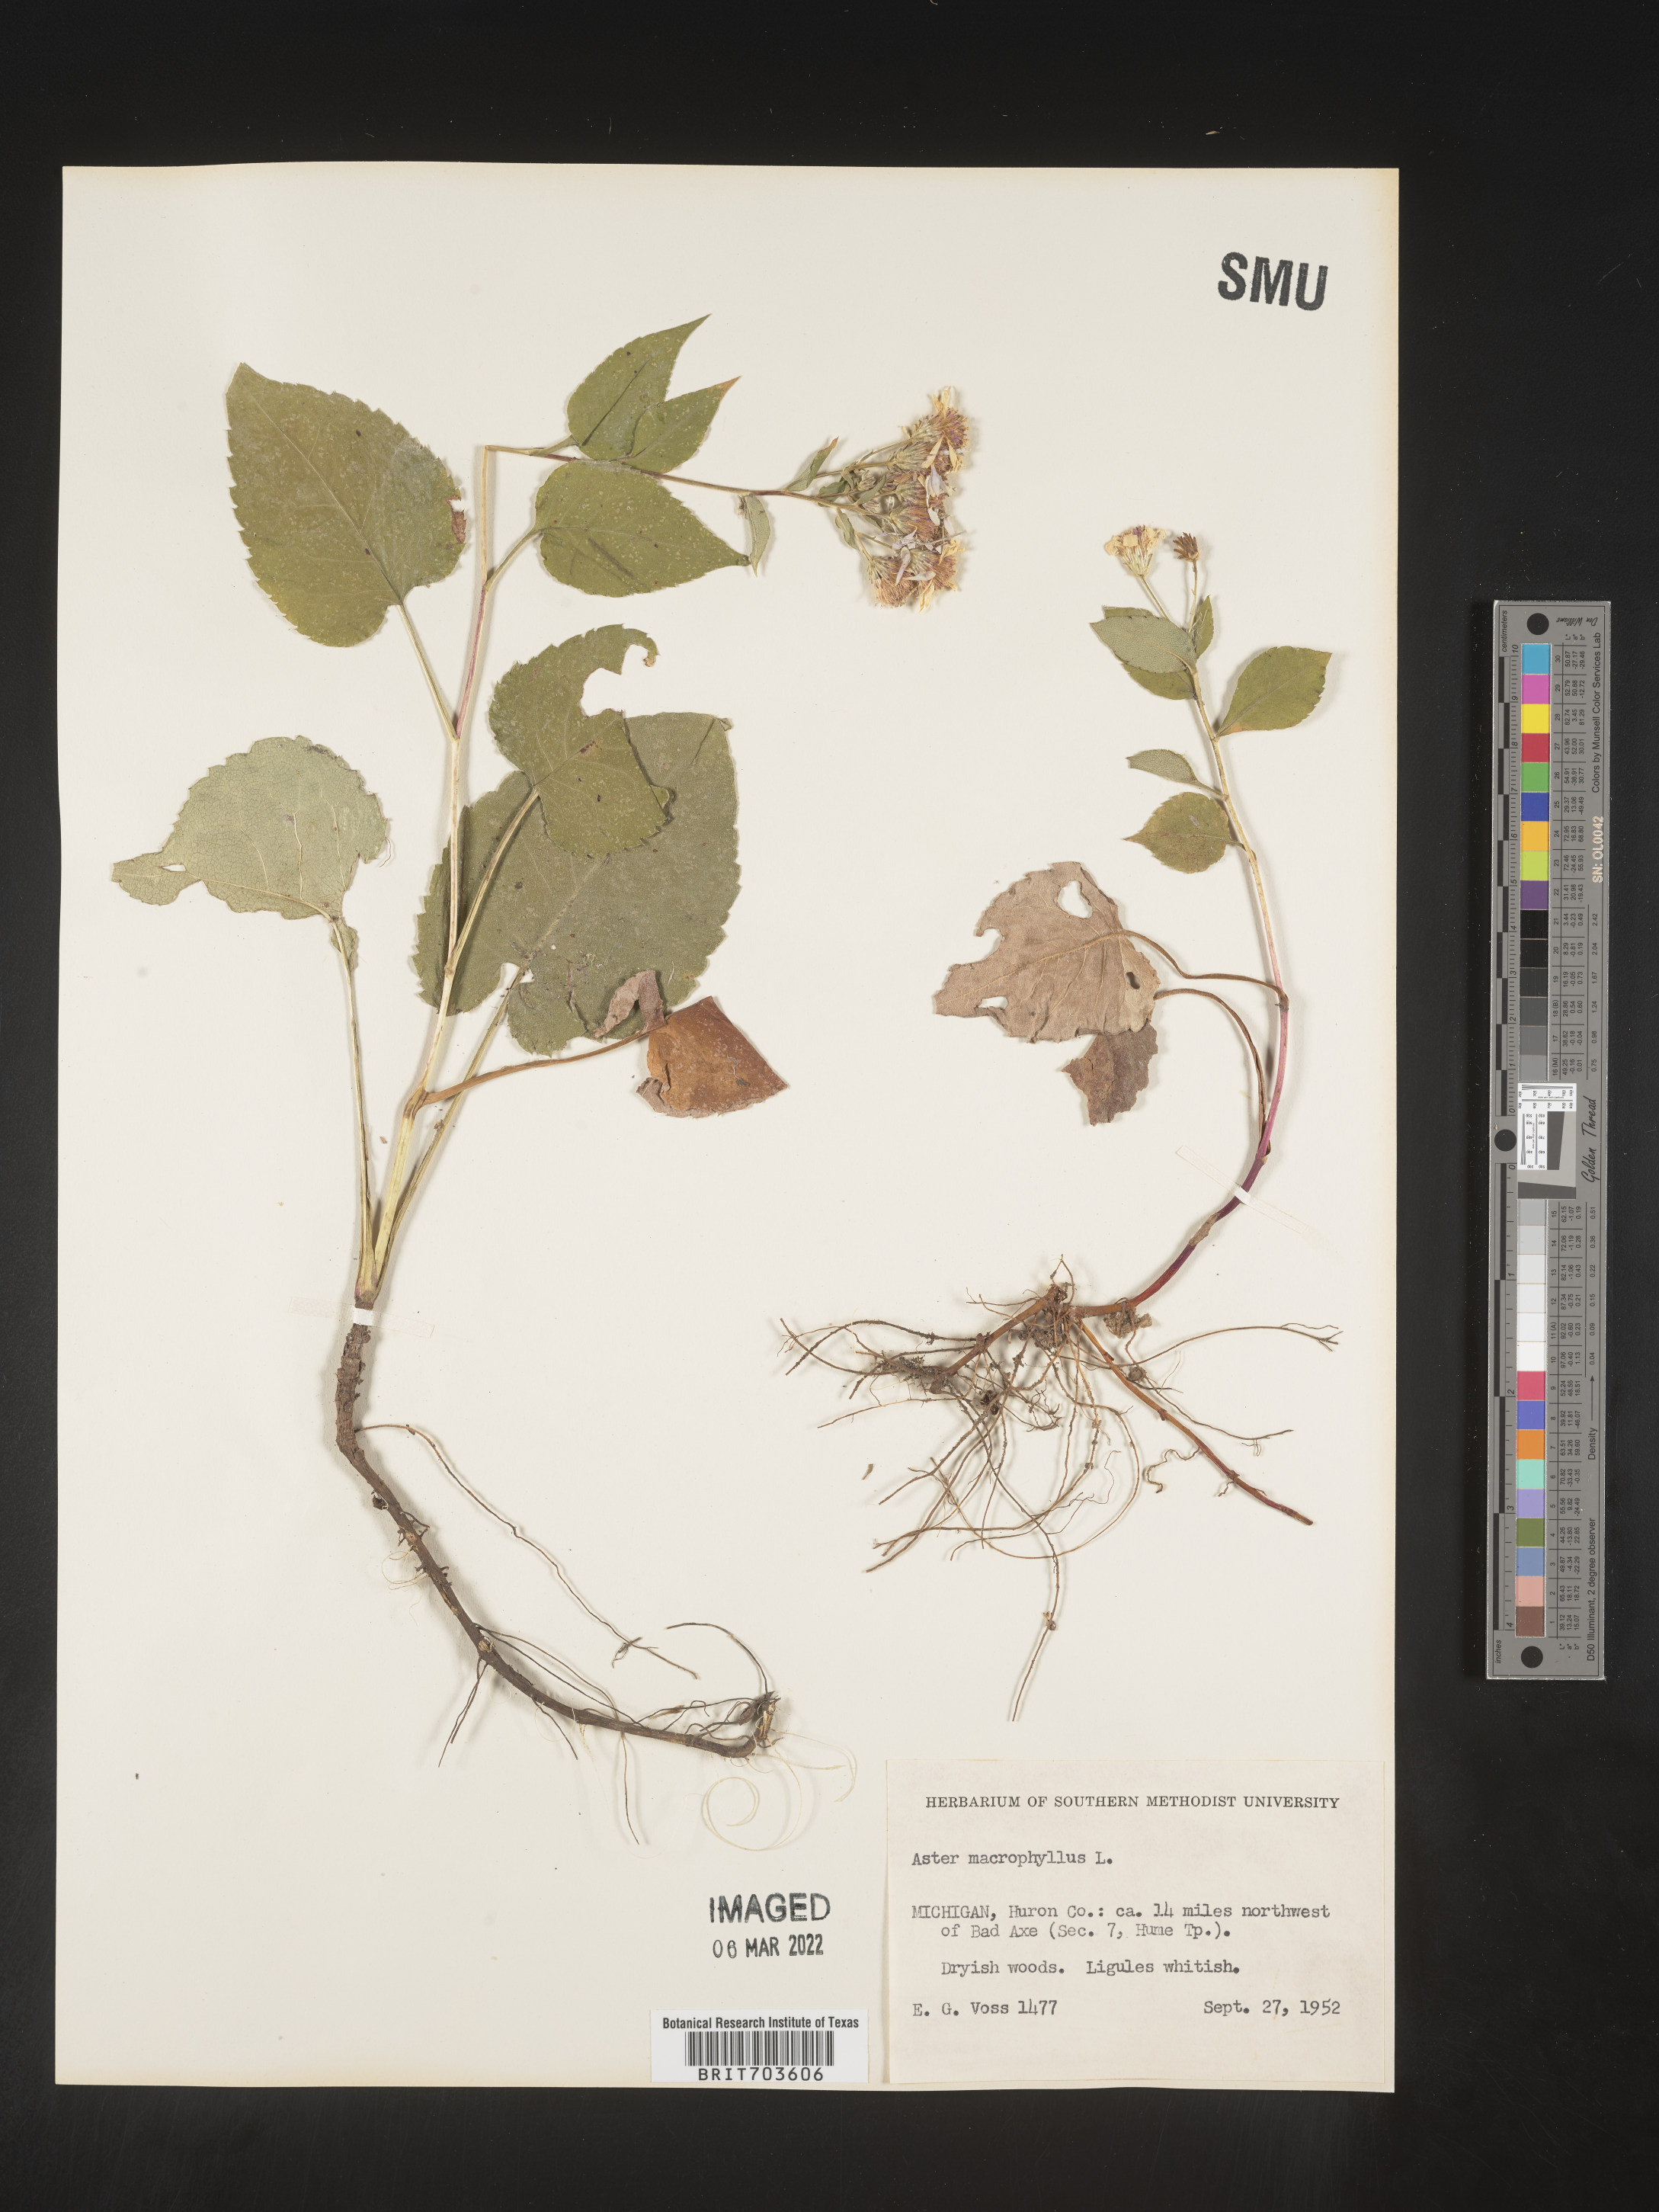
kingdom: Plantae
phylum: Tracheophyta
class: Magnoliopsida
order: Asterales
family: Asteraceae
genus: Eurybia
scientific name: Eurybia macrophylla
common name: Big-leaved aster
